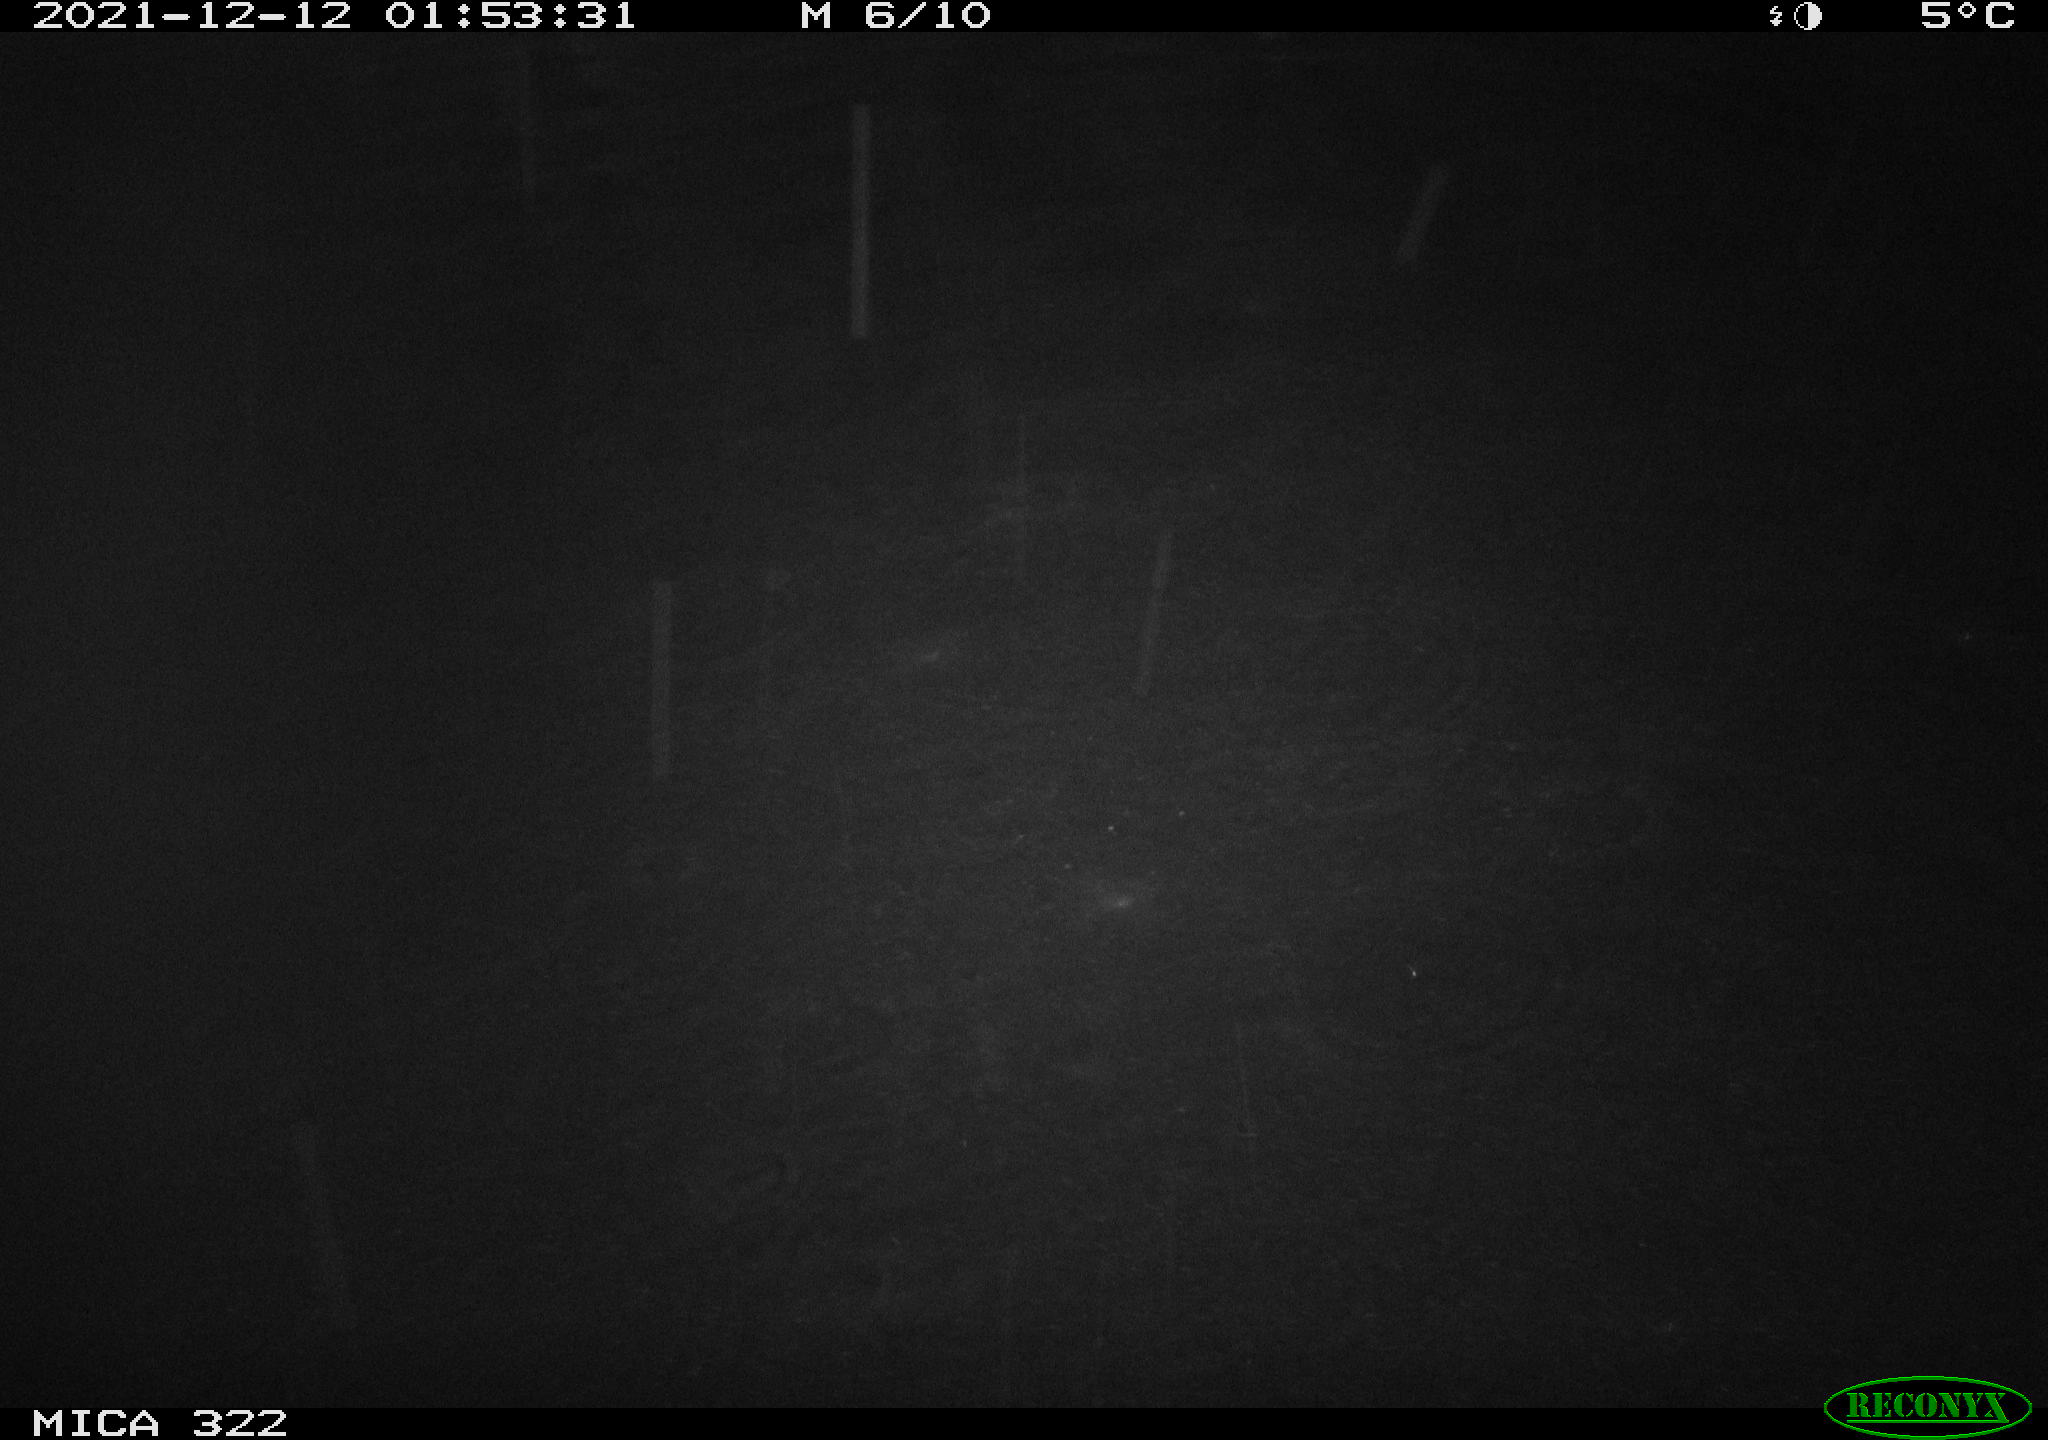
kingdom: Animalia
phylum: Chordata
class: Mammalia
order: Rodentia
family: Muridae
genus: Rattus
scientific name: Rattus norvegicus
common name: Brown rat
